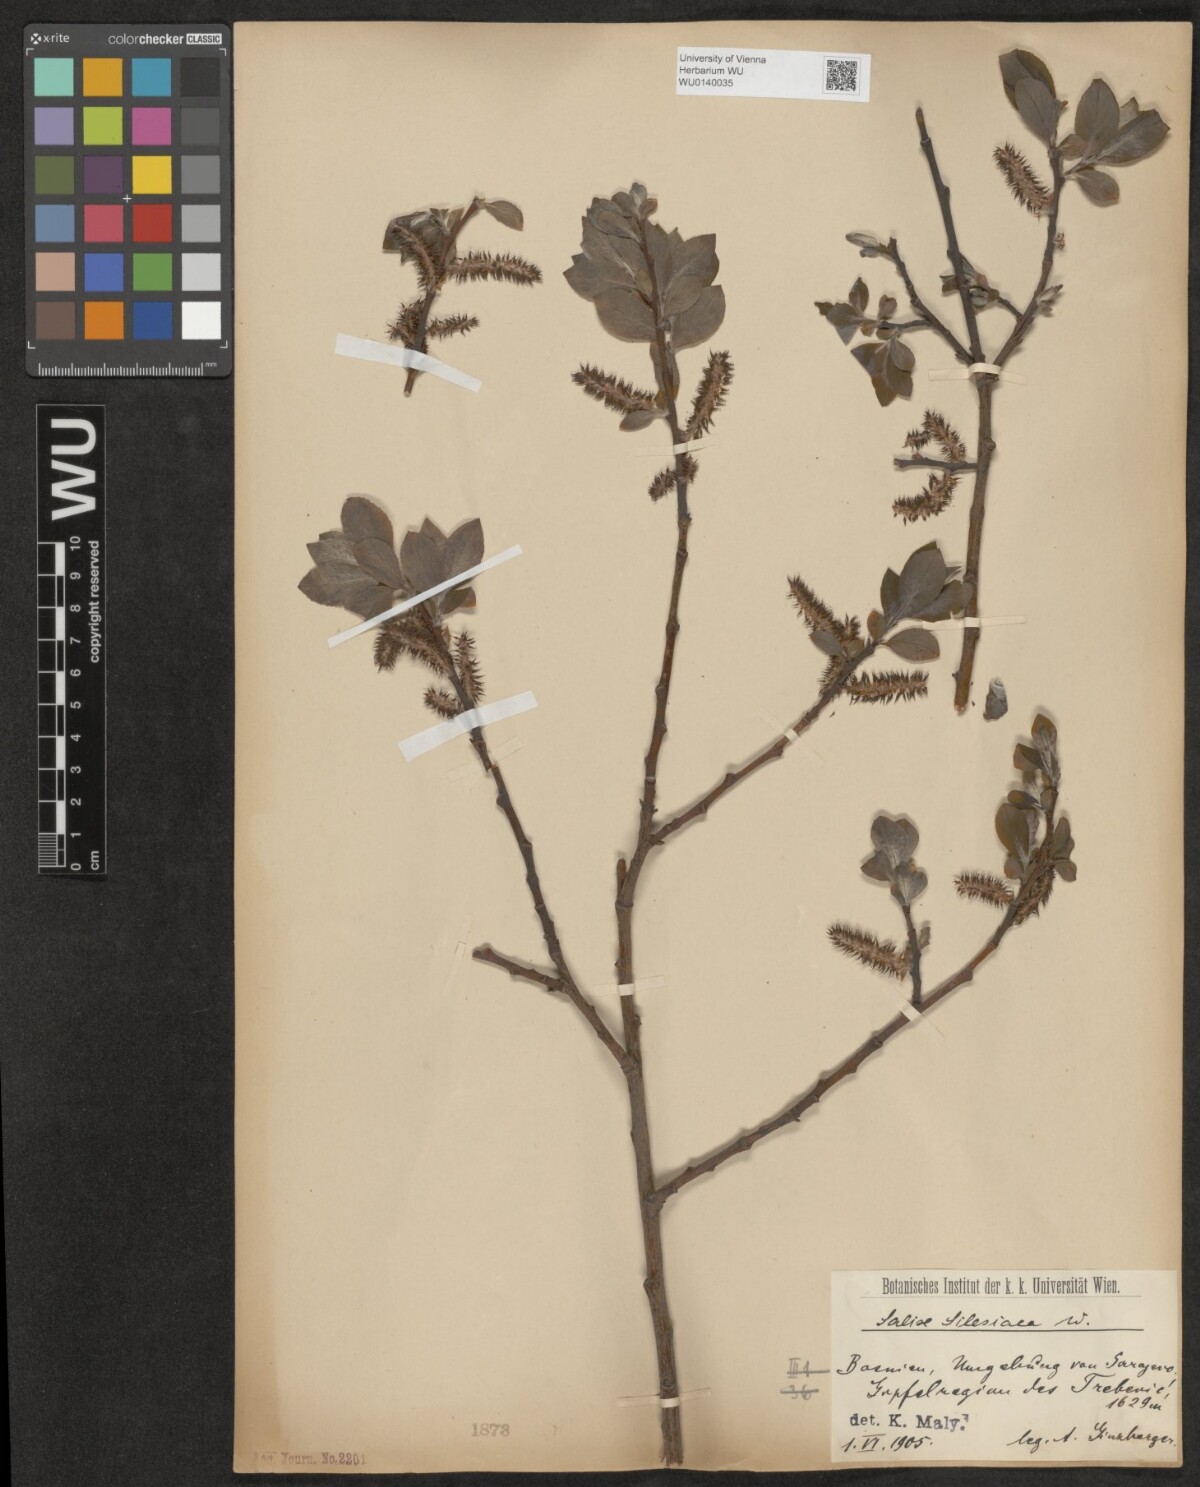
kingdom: Plantae
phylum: Tracheophyta
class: Magnoliopsida
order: Malpighiales
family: Salicaceae
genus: Salix
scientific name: Salix silesiaca
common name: Silesian willow
